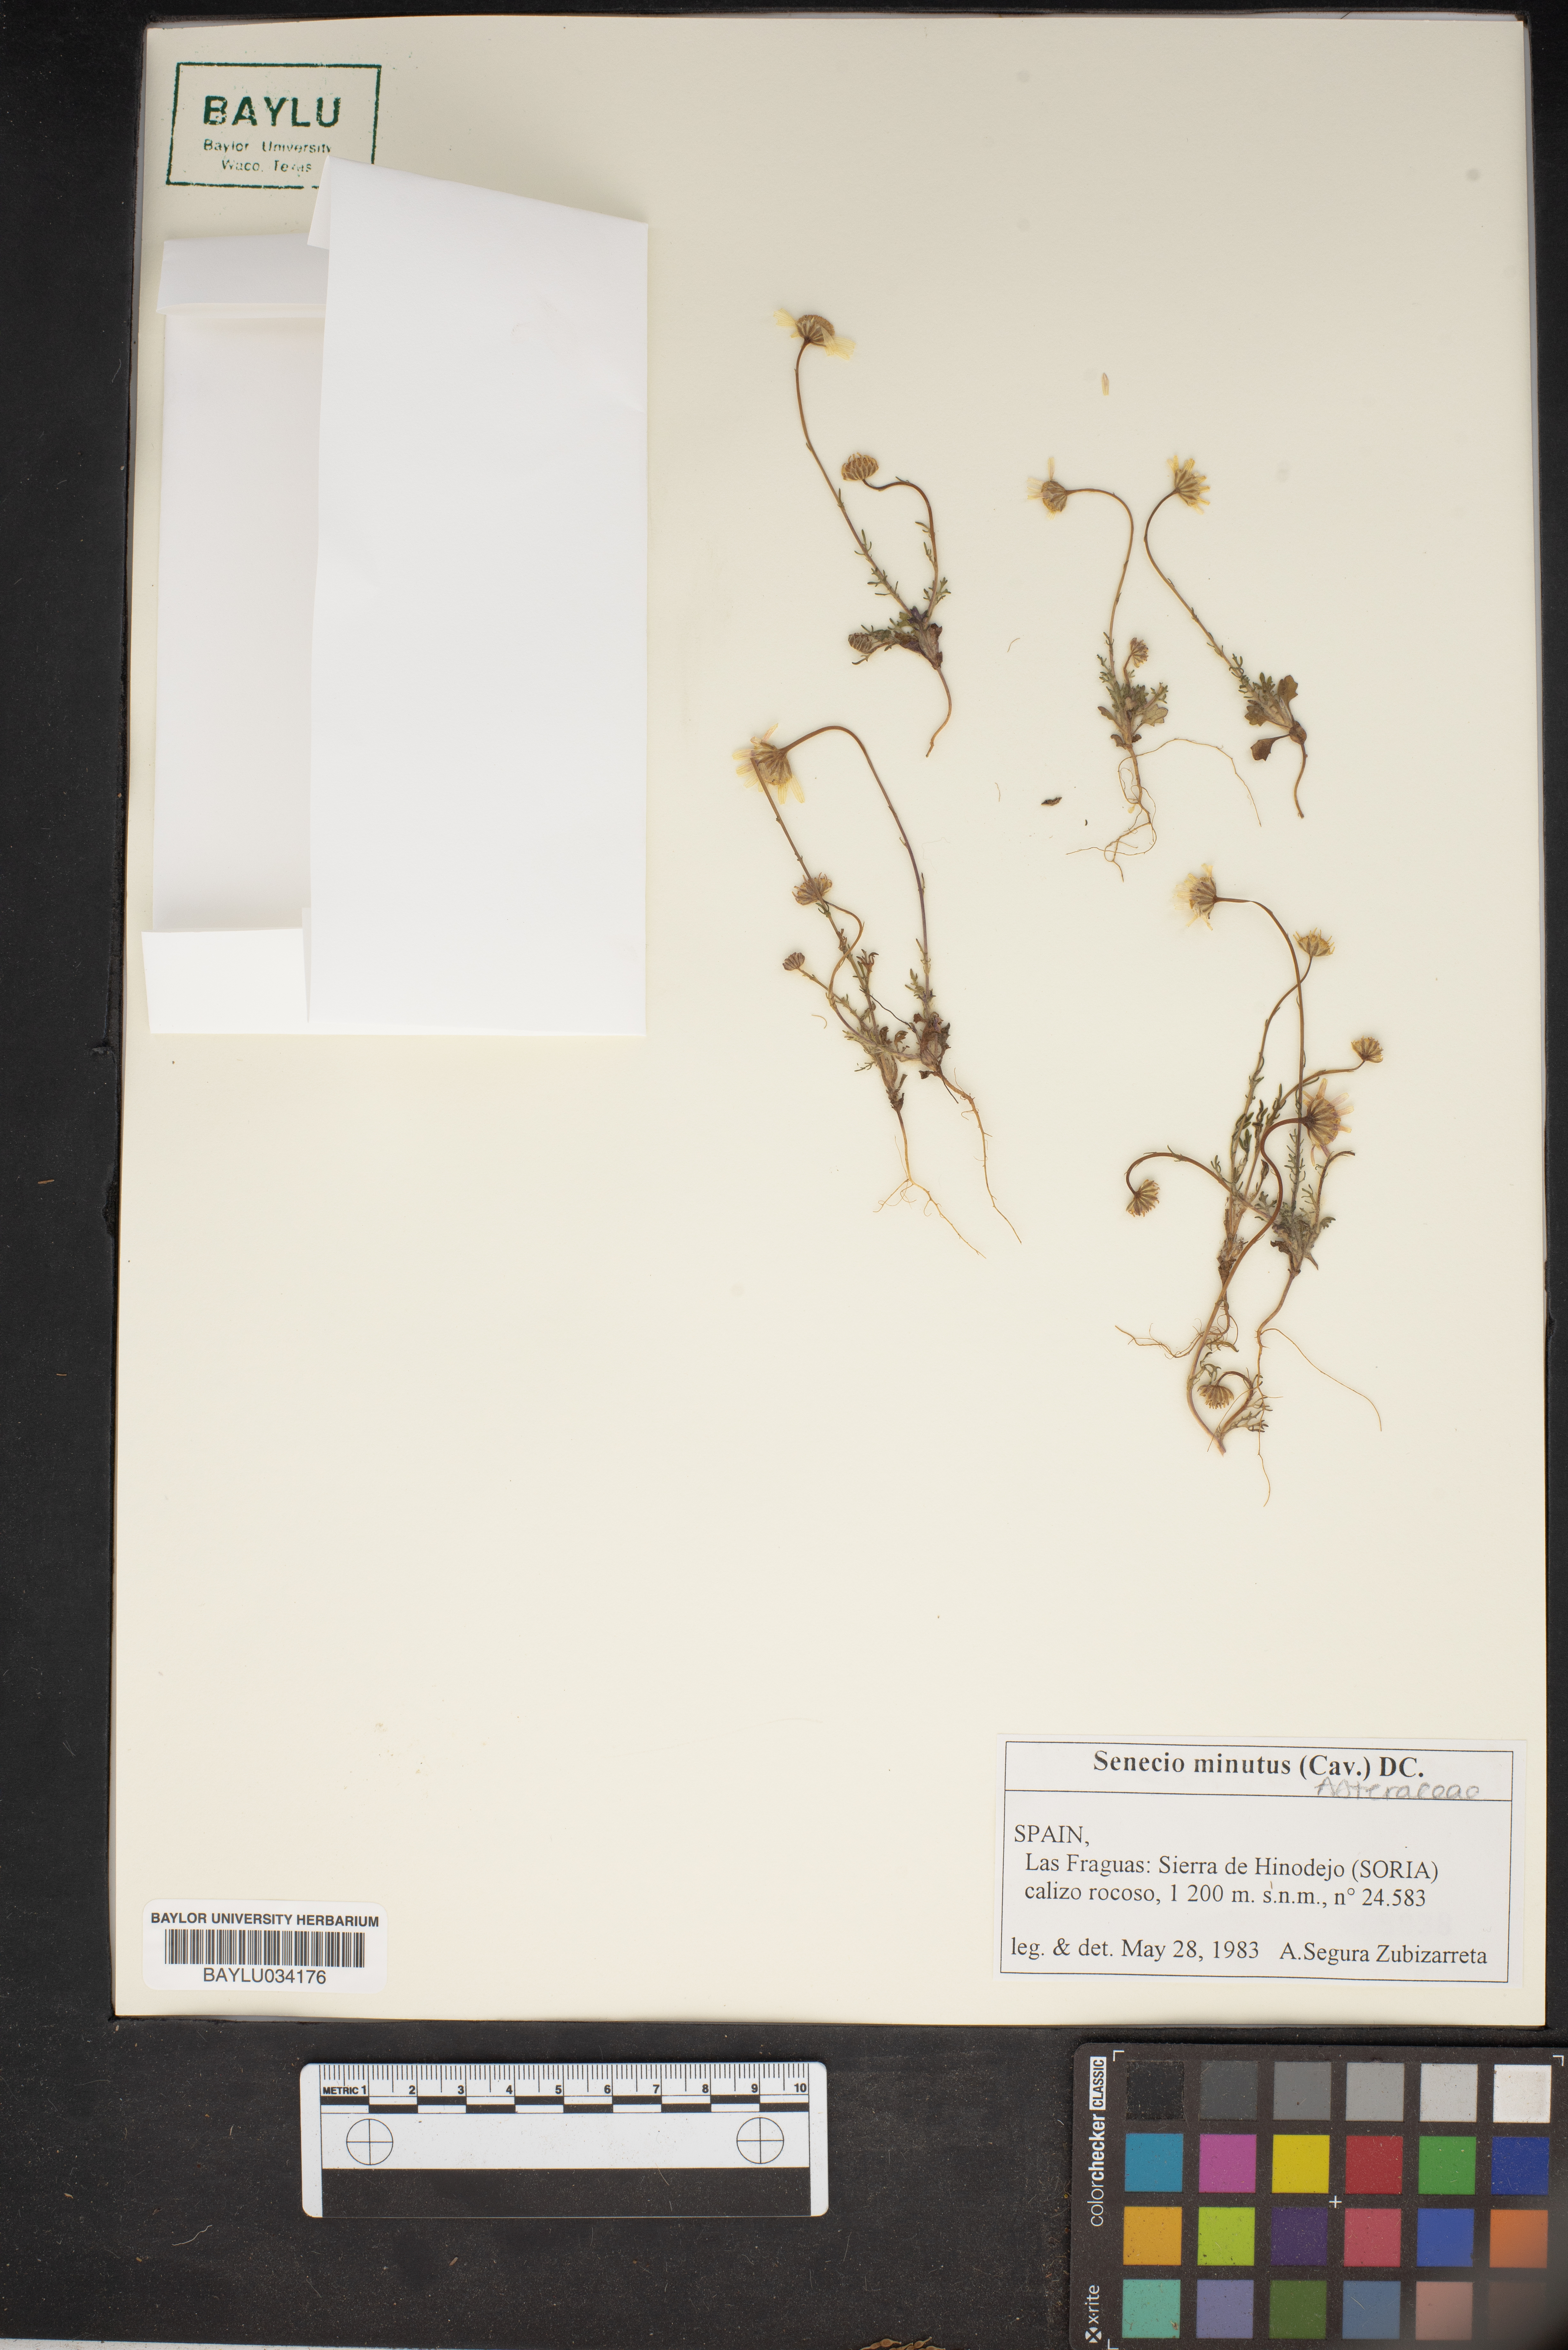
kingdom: Plantae
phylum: Tracheophyta
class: Magnoliopsida
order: Asterales
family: Asteraceae
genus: Jacobaea
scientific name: Jacobaea minuta
